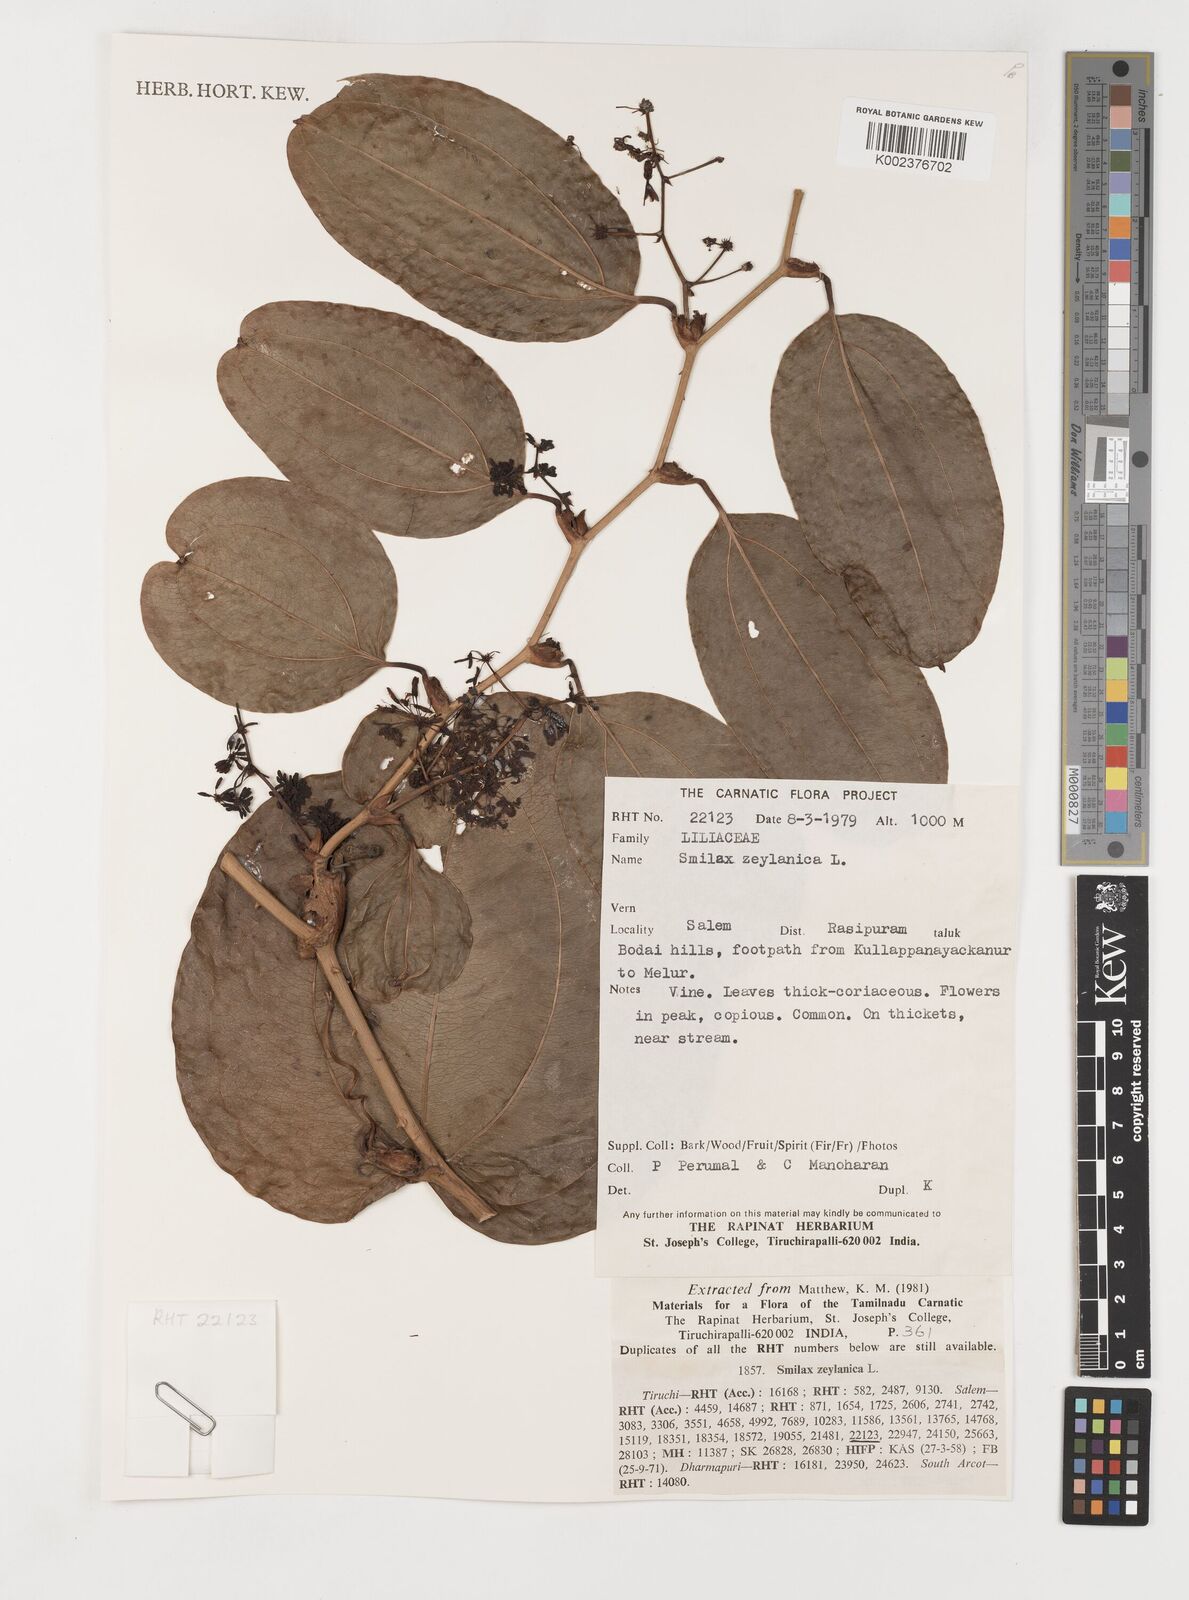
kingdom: Plantae
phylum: Tracheophyta
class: Liliopsida
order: Liliales
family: Smilacaceae
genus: Smilax
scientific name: Smilax zeylanica
